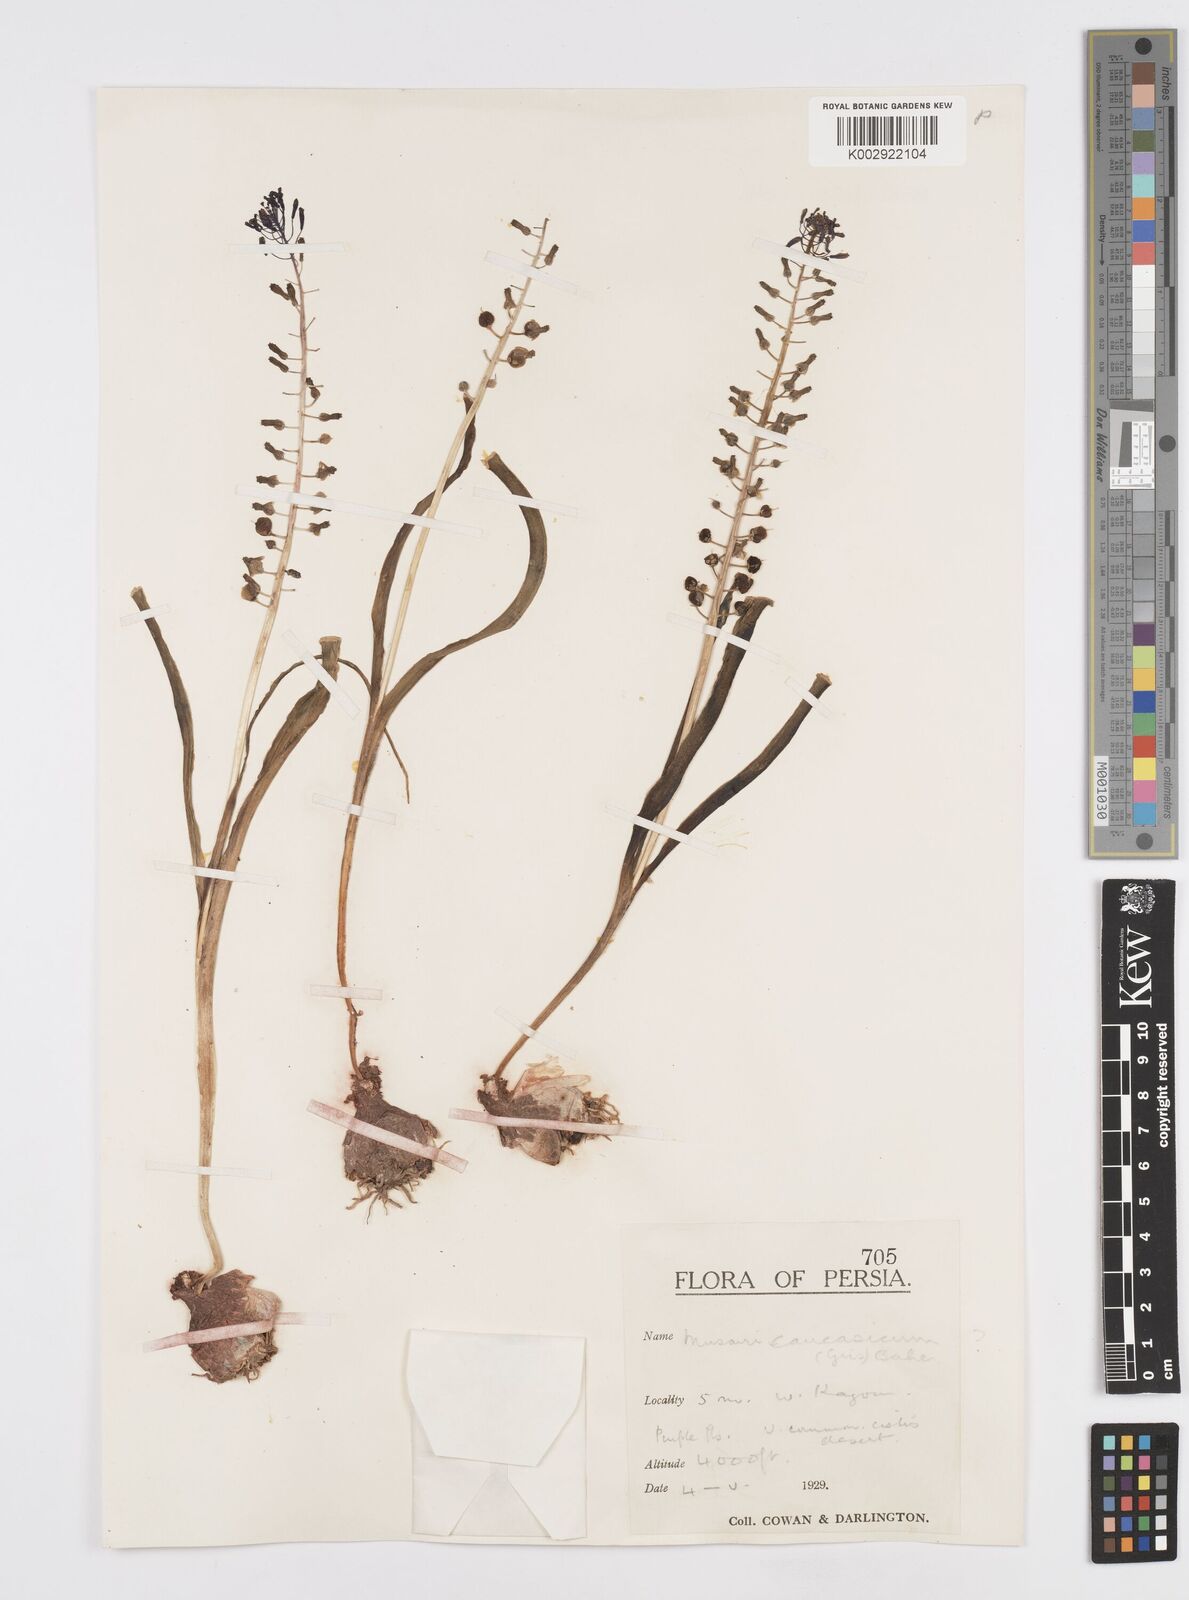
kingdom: Plantae
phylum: Tracheophyta
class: Liliopsida
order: Asparagales
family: Asparagaceae
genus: Muscari
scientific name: Muscari caucasicum
